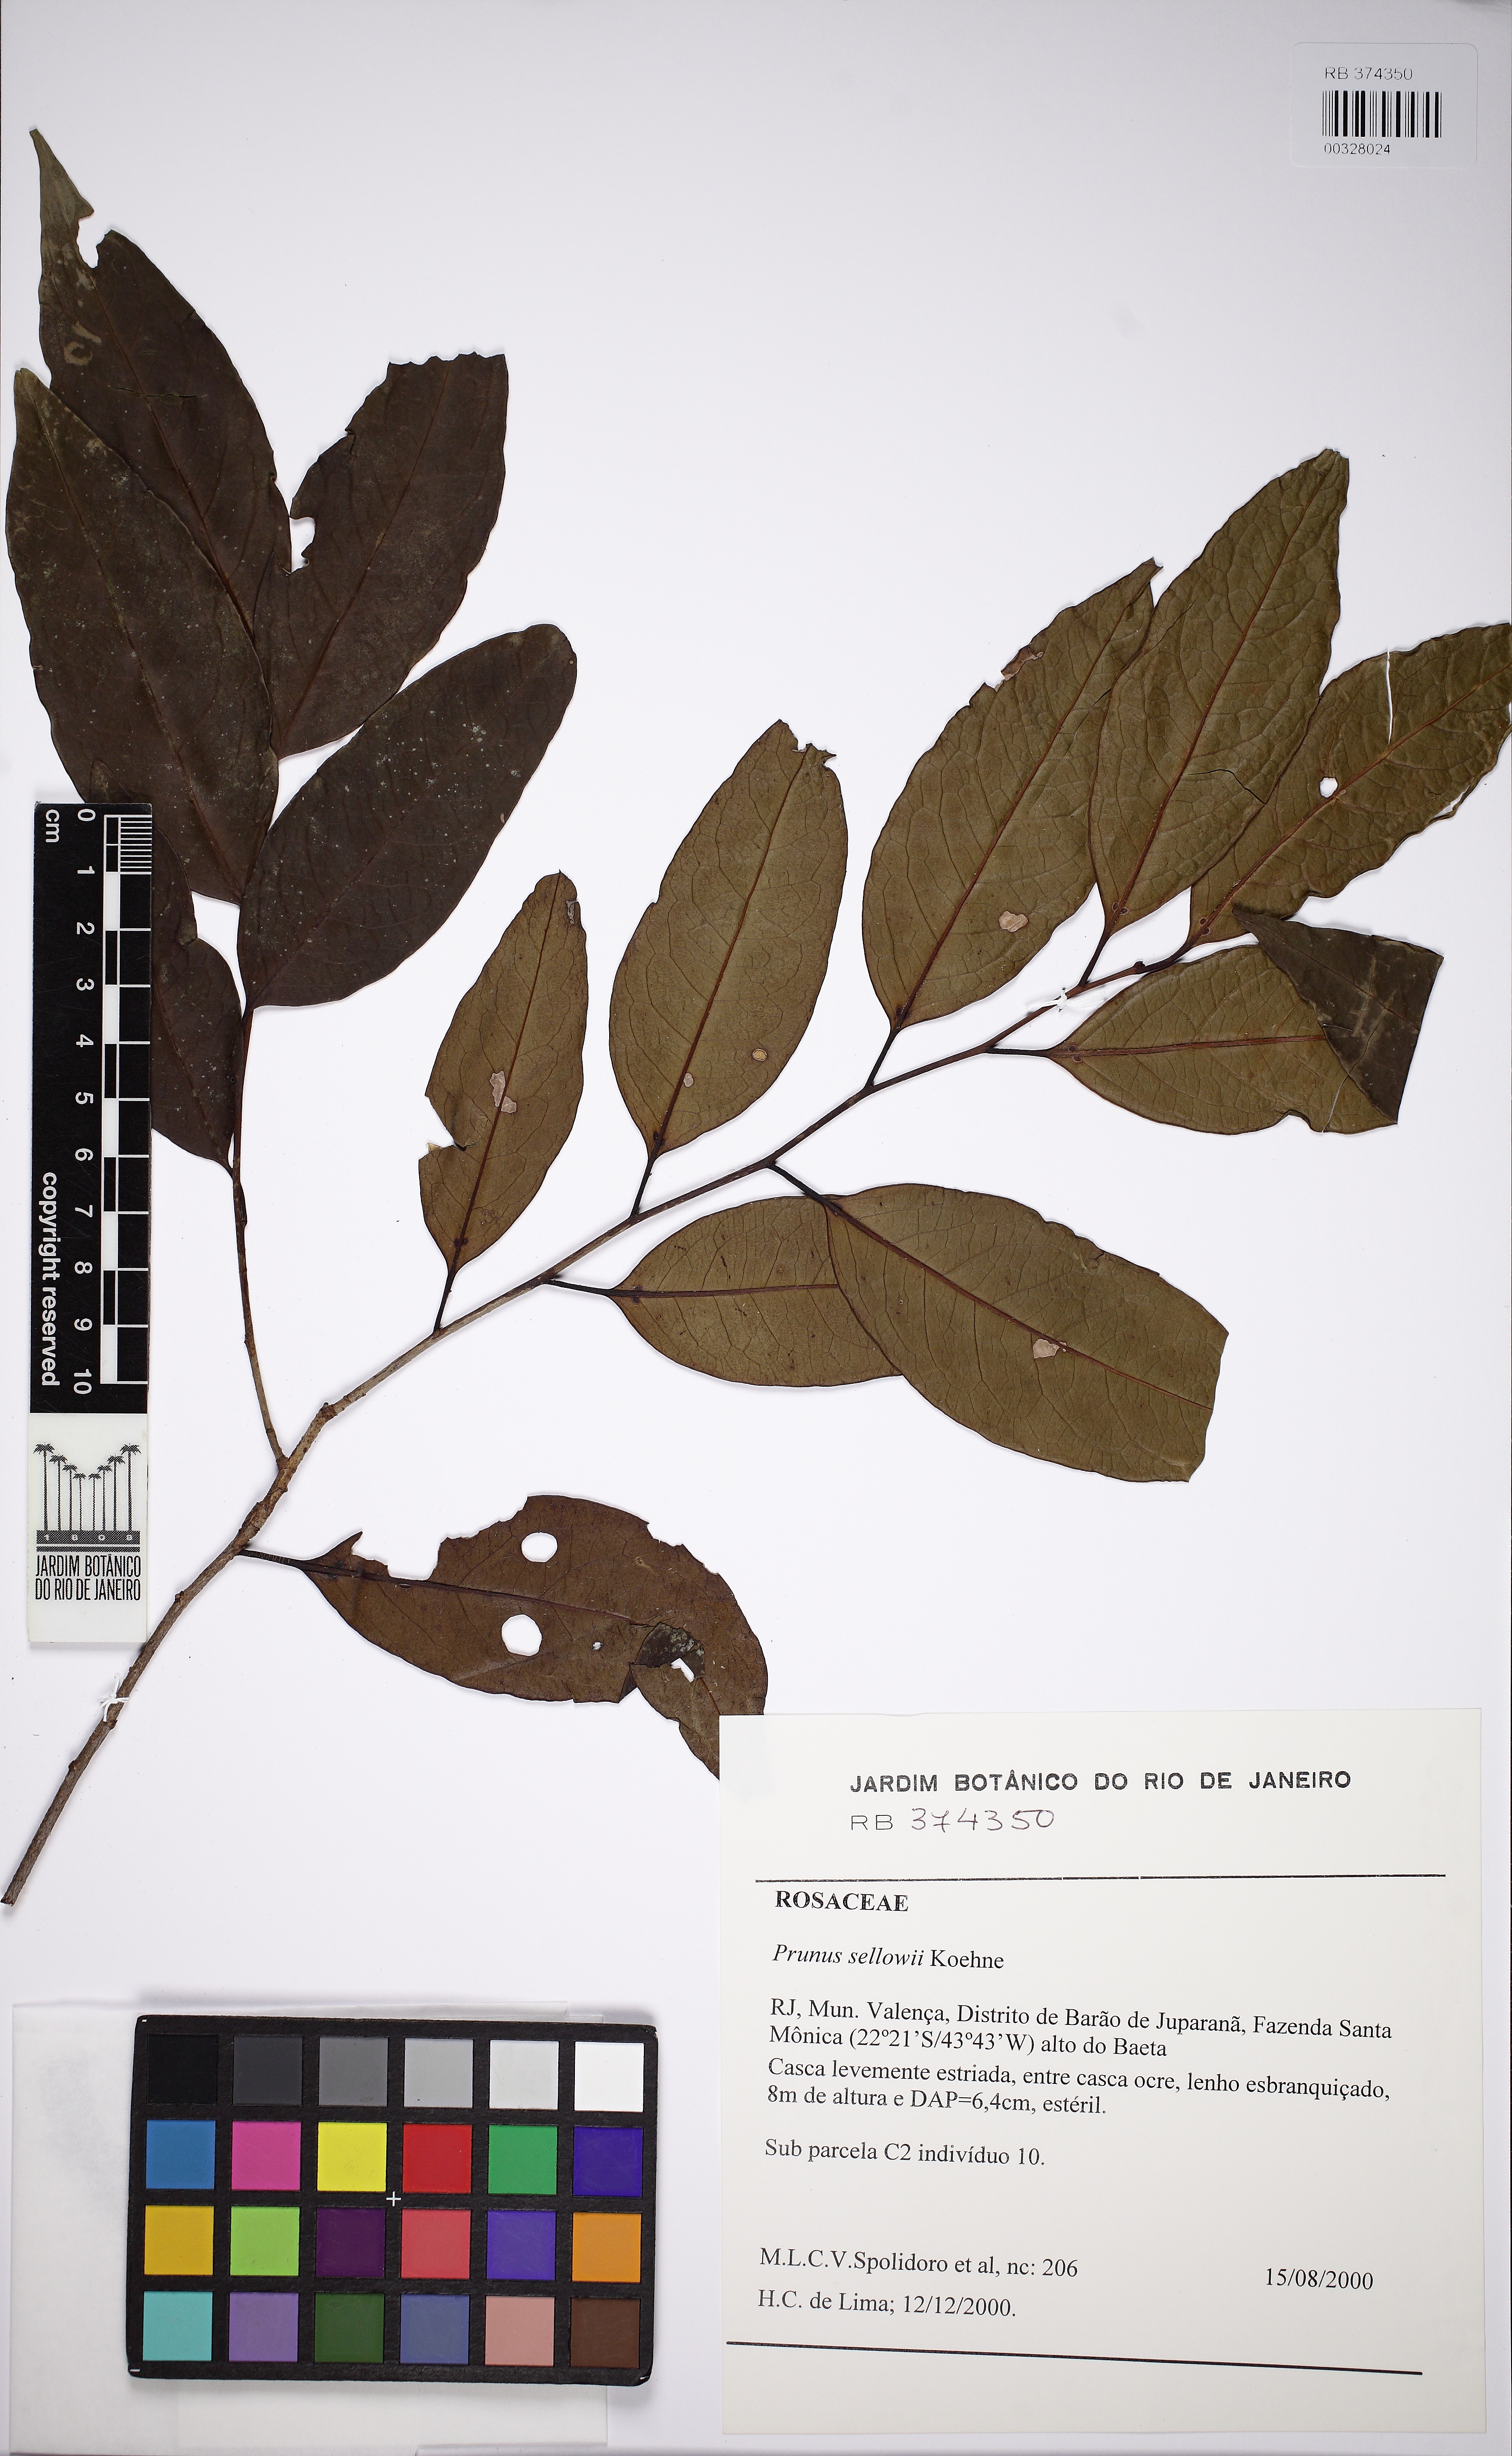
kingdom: Plantae
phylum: Tracheophyta
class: Magnoliopsida
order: Rosales
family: Rosaceae
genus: Prunus
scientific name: Prunus reflexa
